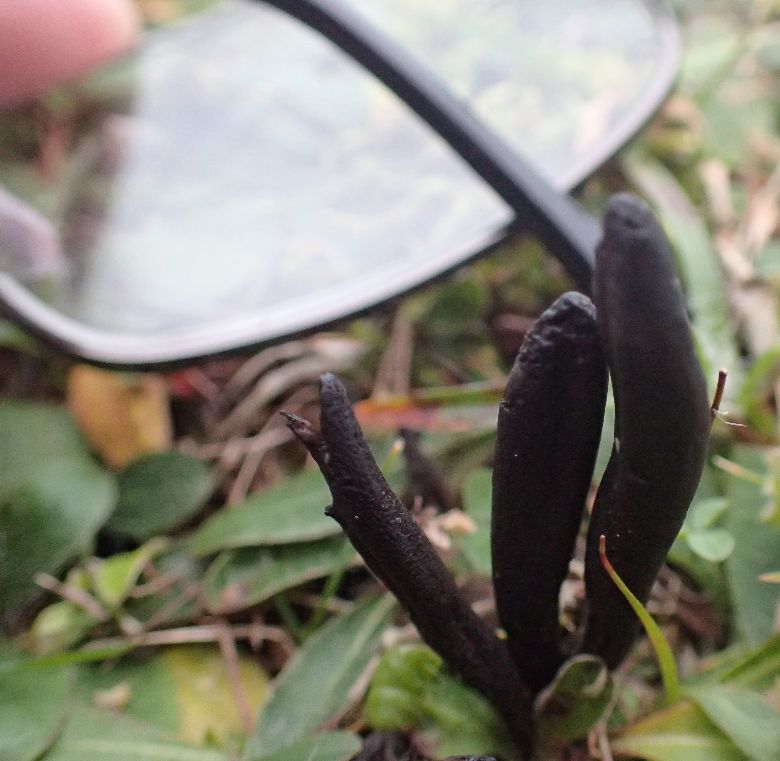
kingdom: Fungi
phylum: Ascomycota
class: Geoglossomycetes
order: Geoglossales
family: Geoglossaceae
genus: Hemileucoglossum
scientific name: Hemileucoglossum elongatum
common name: småsporet jordtunge
